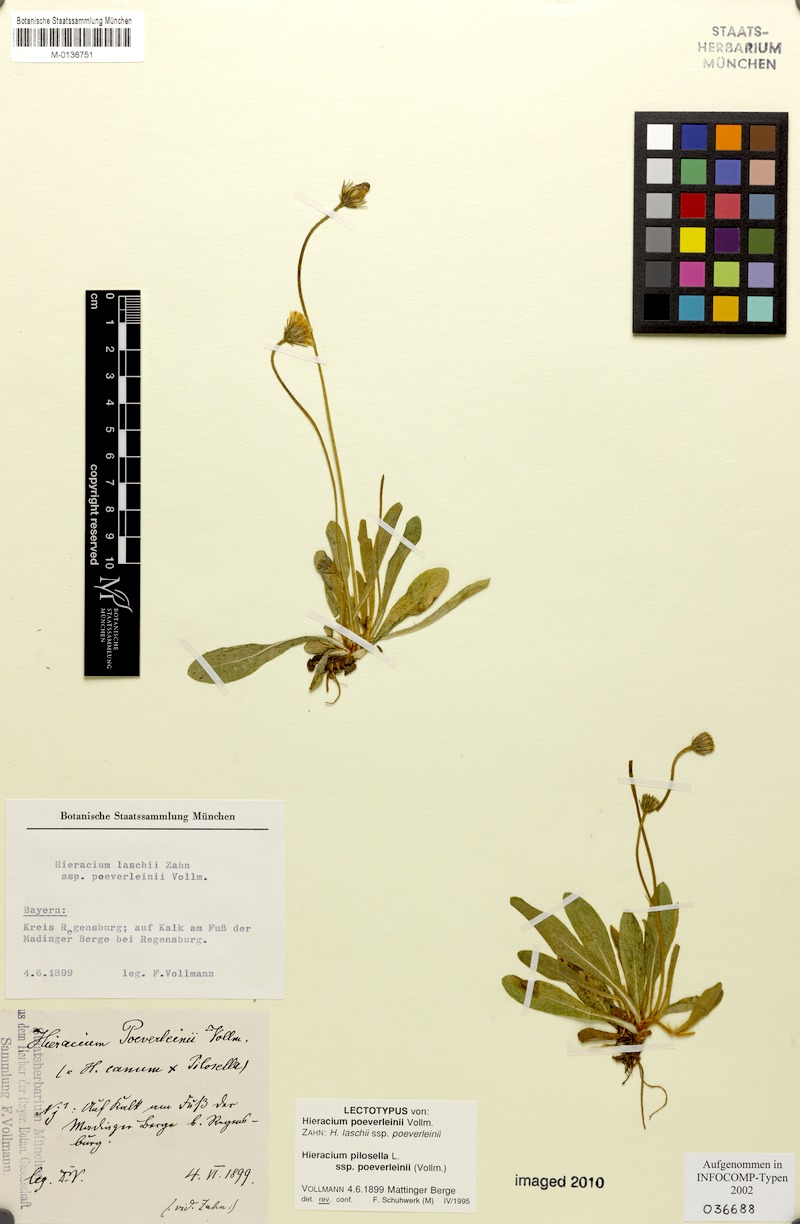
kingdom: Plantae
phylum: Tracheophyta
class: Magnoliopsida
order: Asterales
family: Asteraceae
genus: Pilosella
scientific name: Pilosella officinarum
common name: Mouse-ear hawkweed
